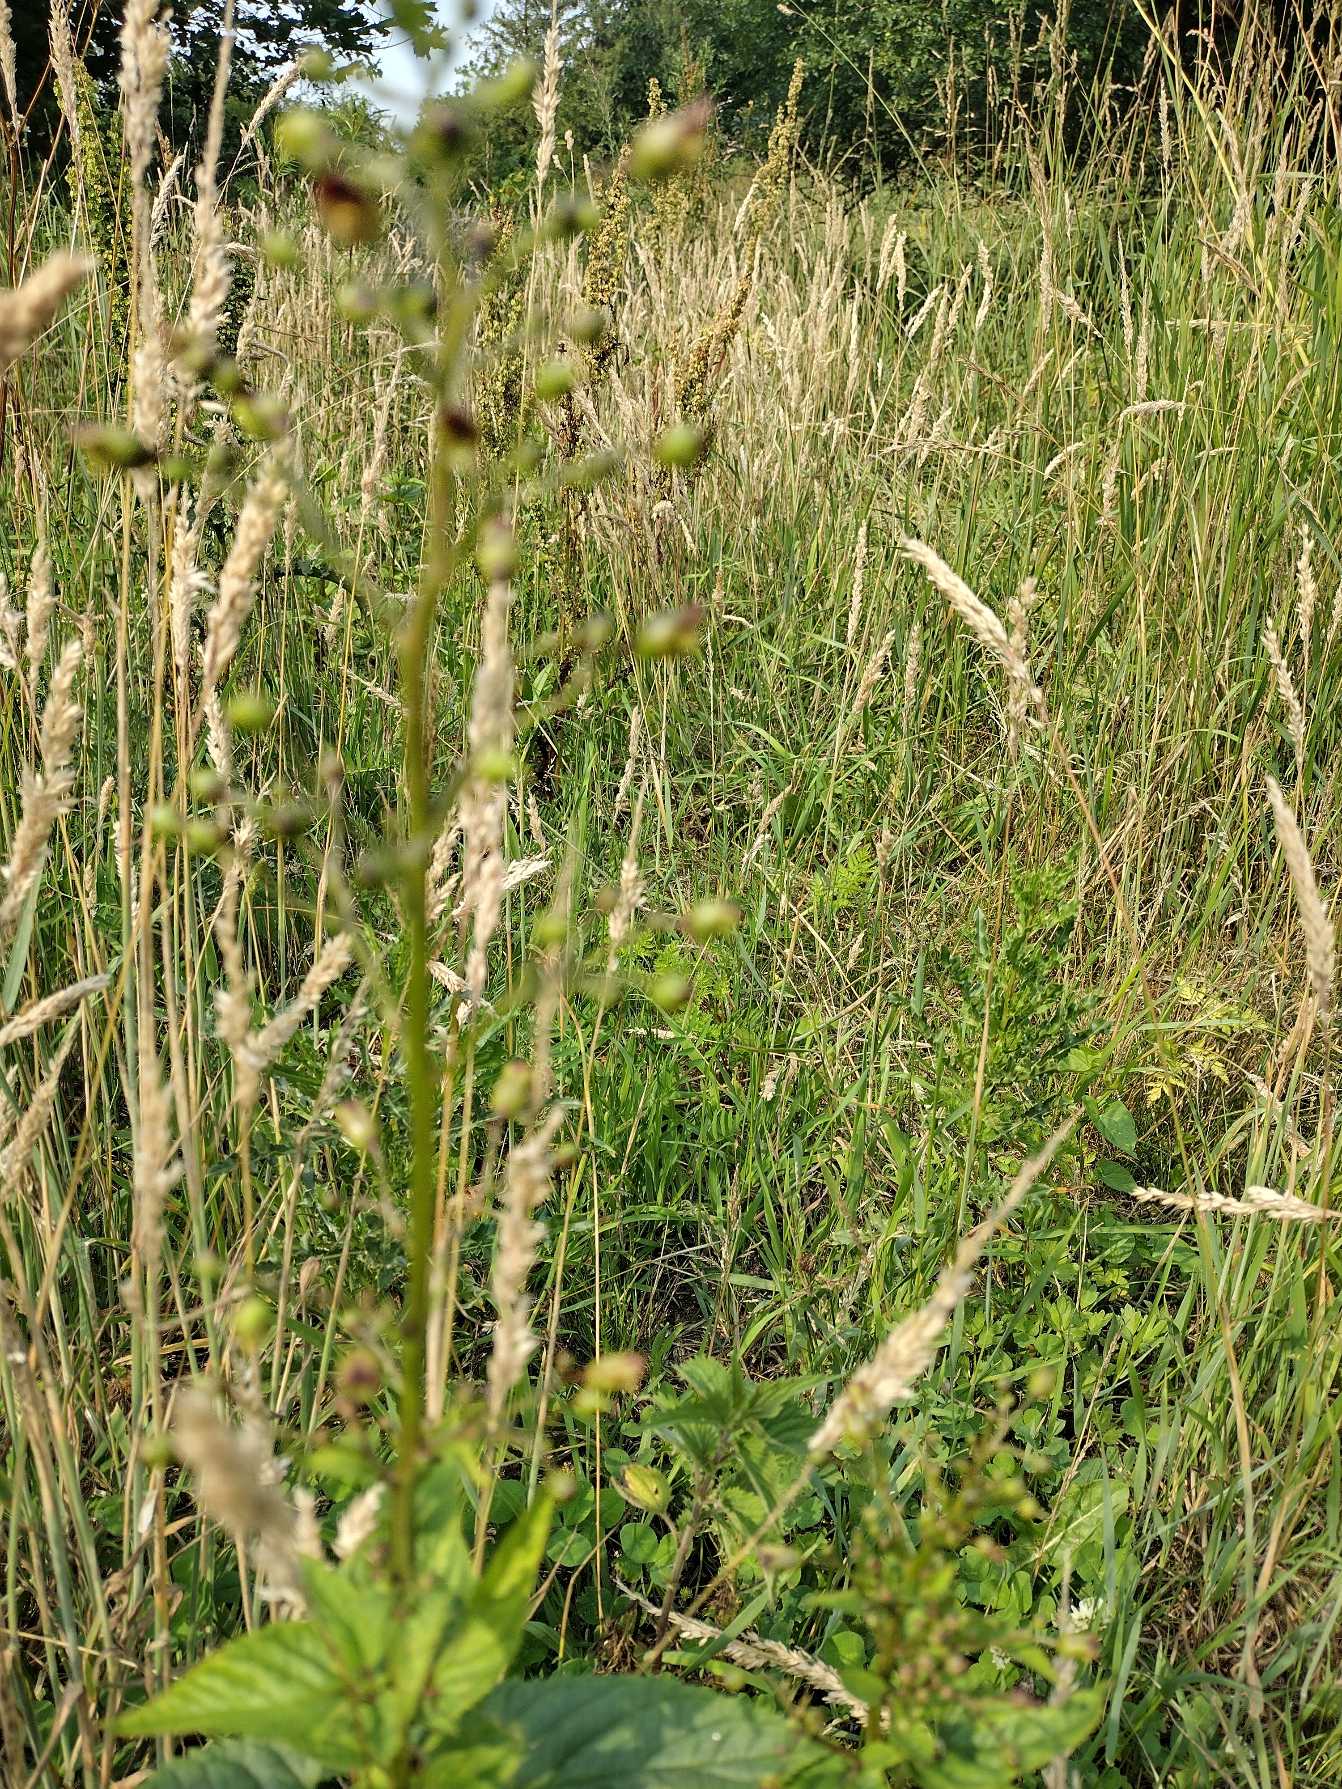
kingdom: Plantae
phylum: Tracheophyta
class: Magnoliopsida
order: Lamiales
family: Scrophulariaceae
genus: Scrophularia
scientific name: Scrophularia nodosa
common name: Knoldet brunrod
